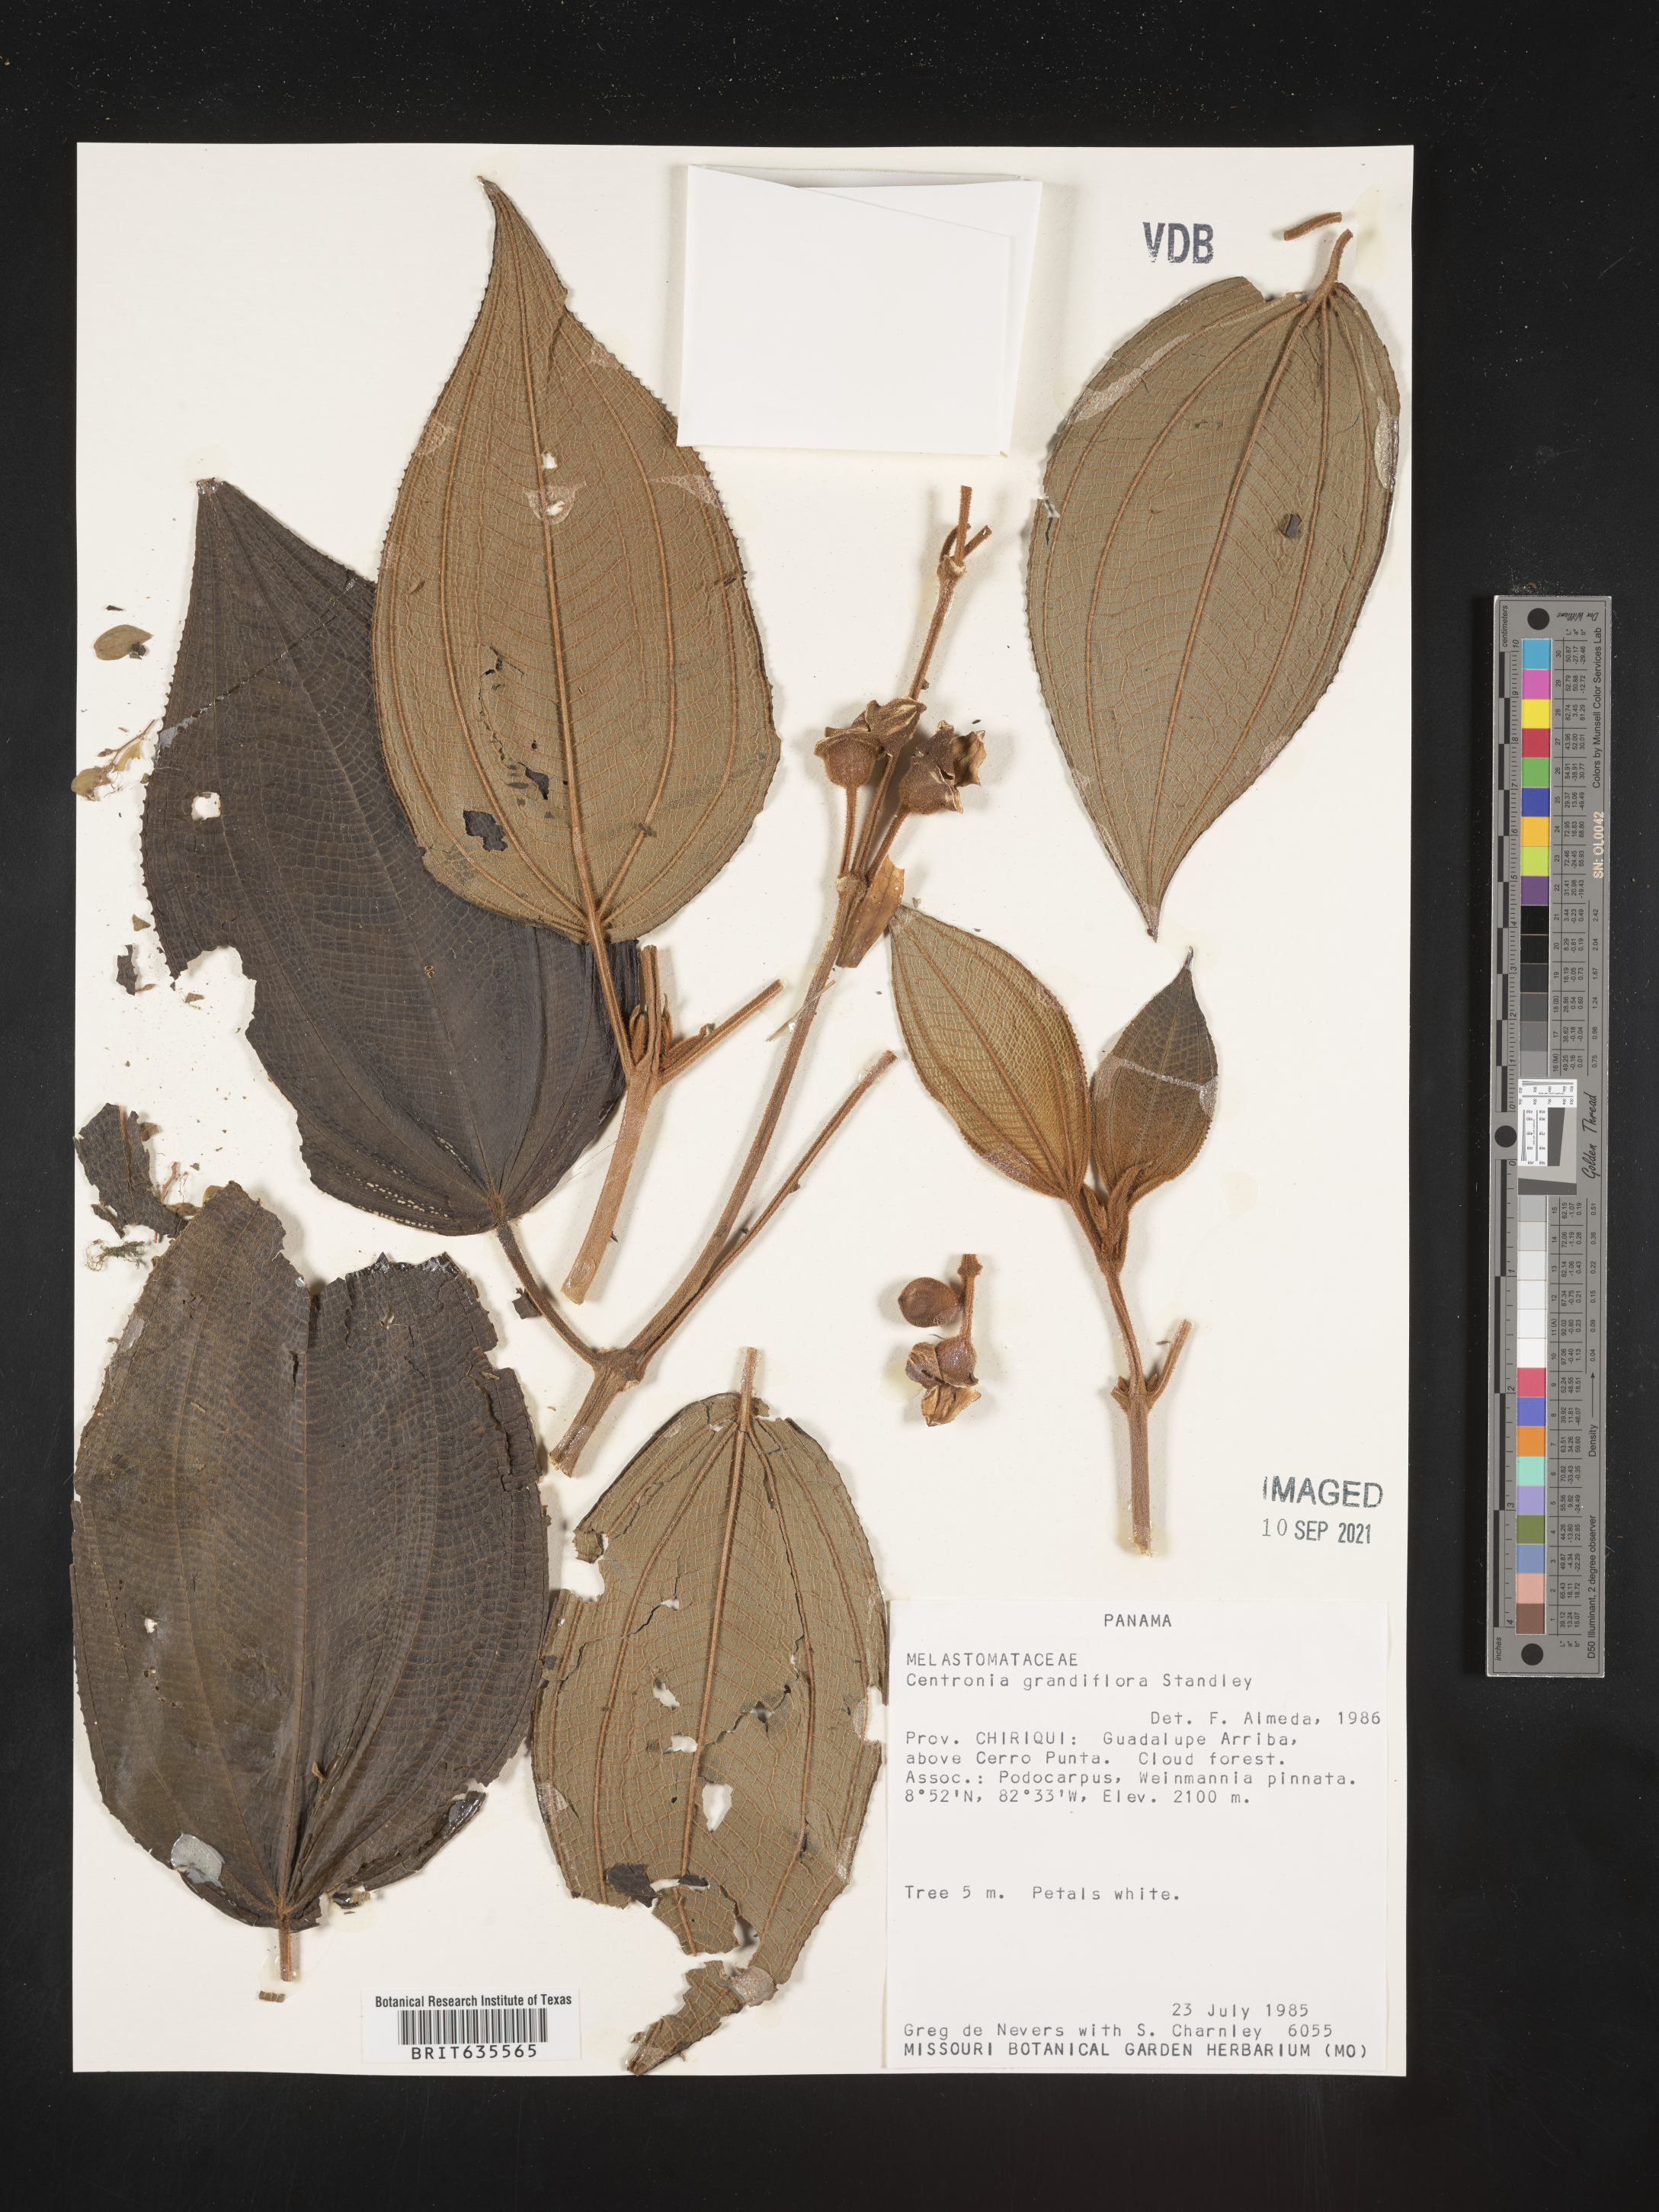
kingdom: Plantae
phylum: Tracheophyta
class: Magnoliopsida
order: Myrtales
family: Melastomataceae
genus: Meriania
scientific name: Meriania grandiflora
